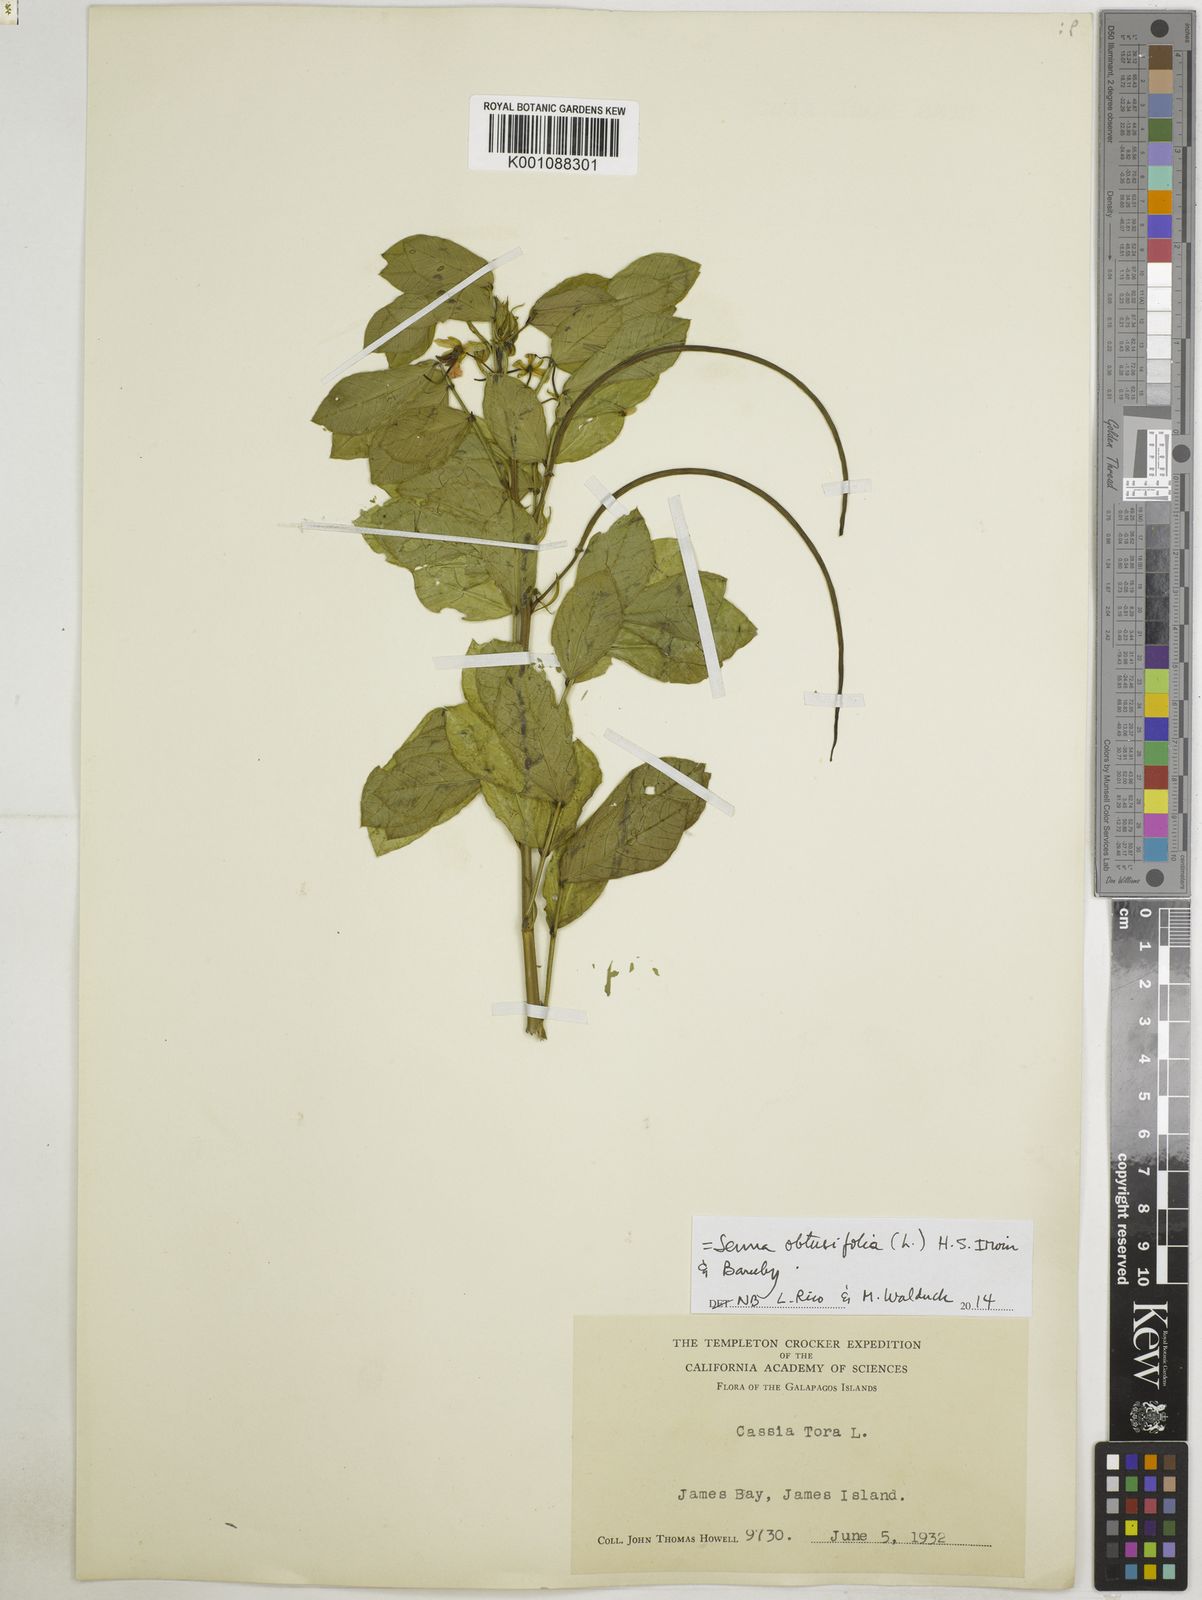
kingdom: Plantae
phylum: Tracheophyta
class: Magnoliopsida
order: Fabales
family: Fabaceae
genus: Senna
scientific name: Senna obtusifolia
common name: Java-bean
